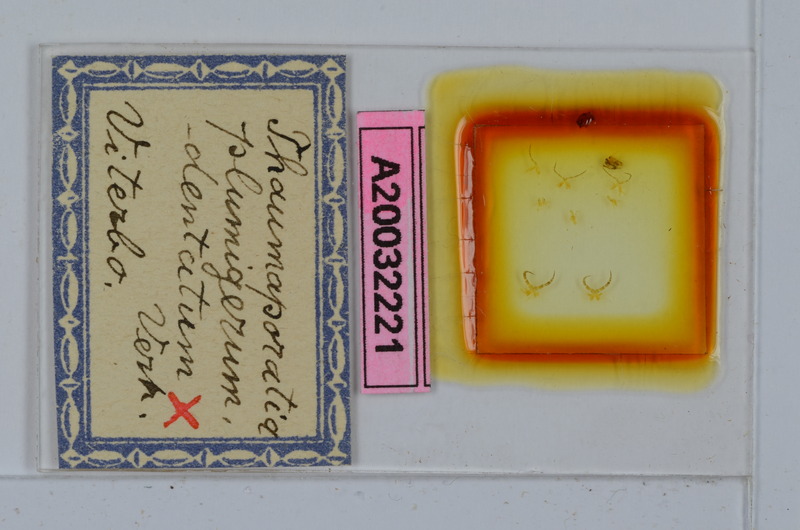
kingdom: Animalia
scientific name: Animalia
